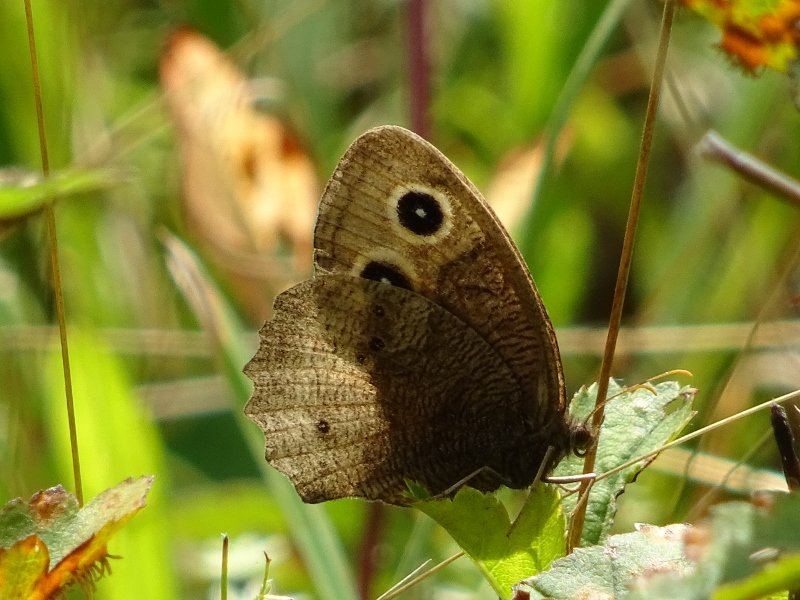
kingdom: Animalia
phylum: Arthropoda
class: Insecta
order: Lepidoptera
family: Nymphalidae
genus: Cercyonis
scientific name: Cercyonis pegala
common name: Common Wood-Nymph
